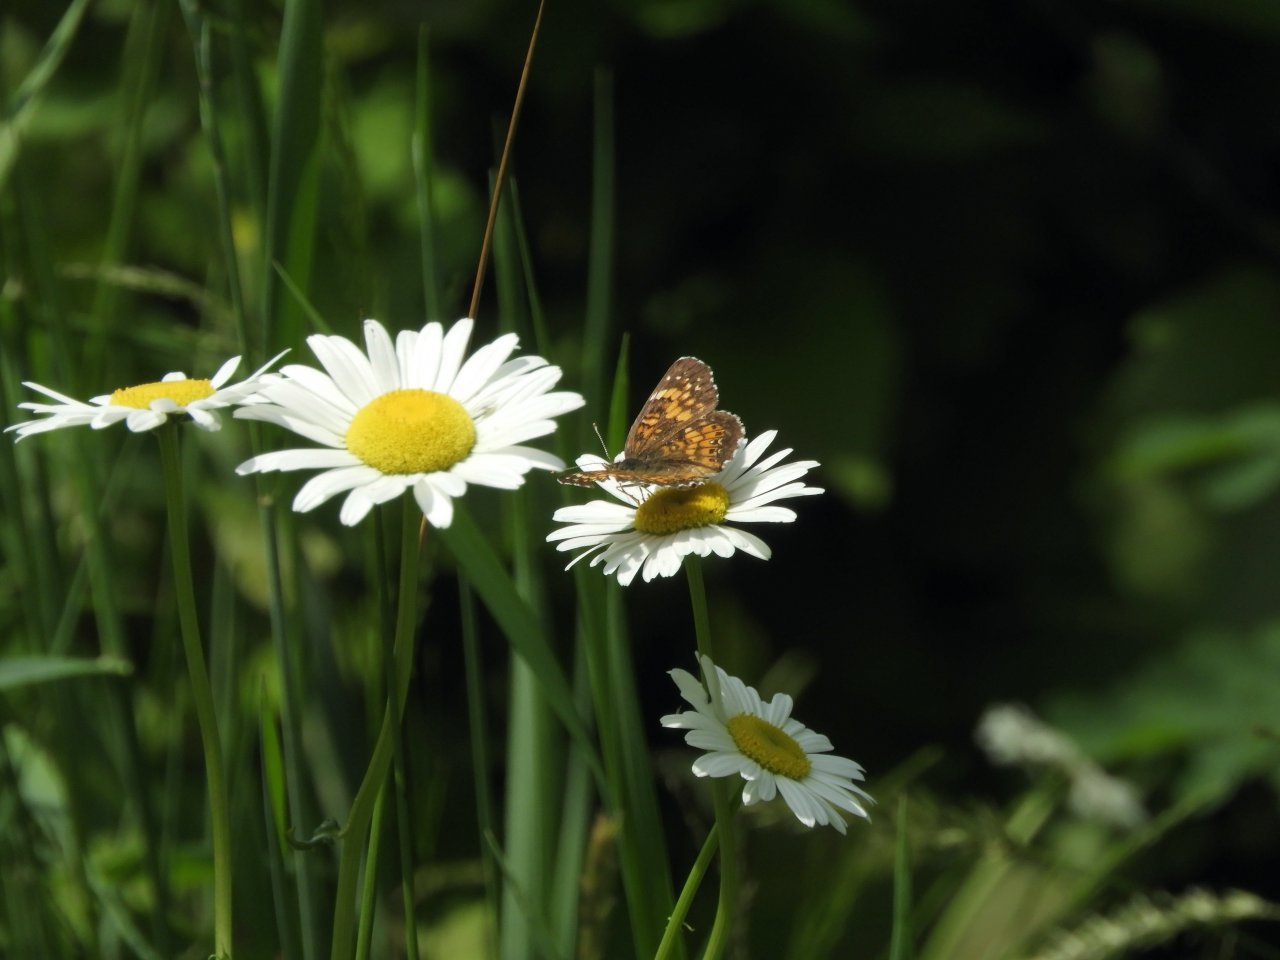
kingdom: Animalia
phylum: Arthropoda
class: Insecta
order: Lepidoptera
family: Nymphalidae
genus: Chlosyne
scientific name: Chlosyne harrisii
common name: Harris's Checkerspot
